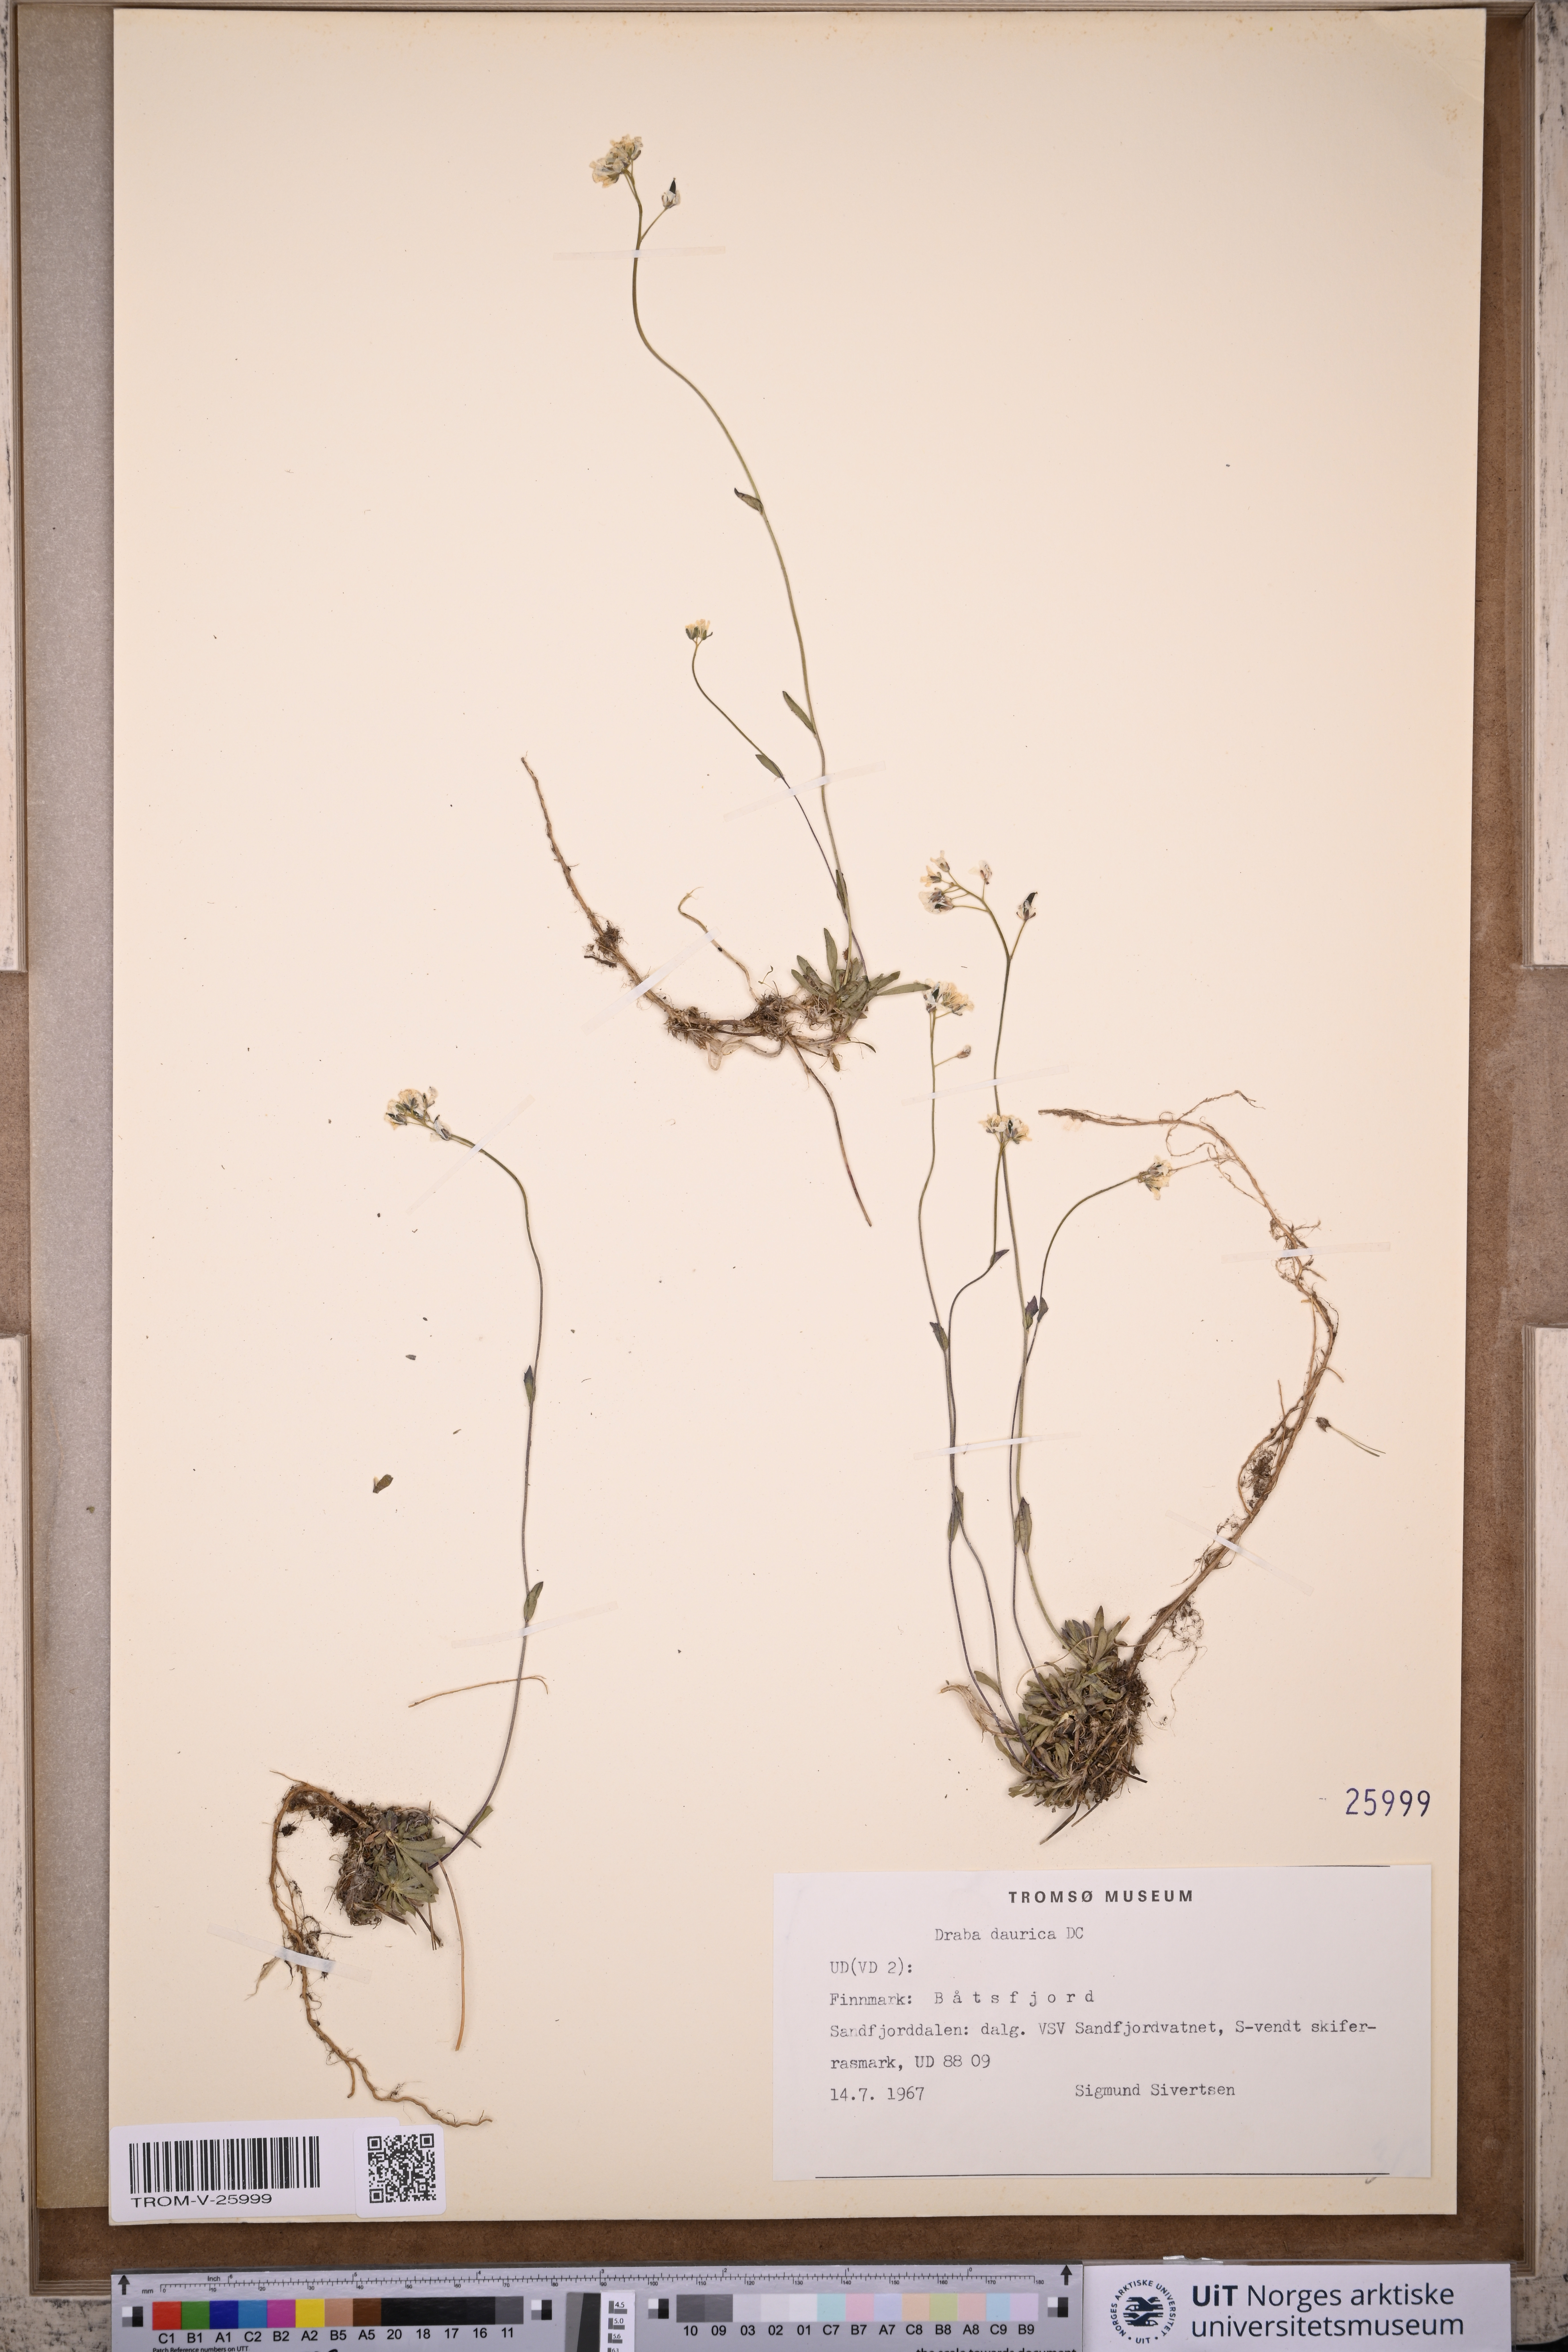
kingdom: Plantae
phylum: Tracheophyta
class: Magnoliopsida
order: Brassicales
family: Brassicaceae
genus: Draba
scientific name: Draba glabella
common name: Glaucous draba
